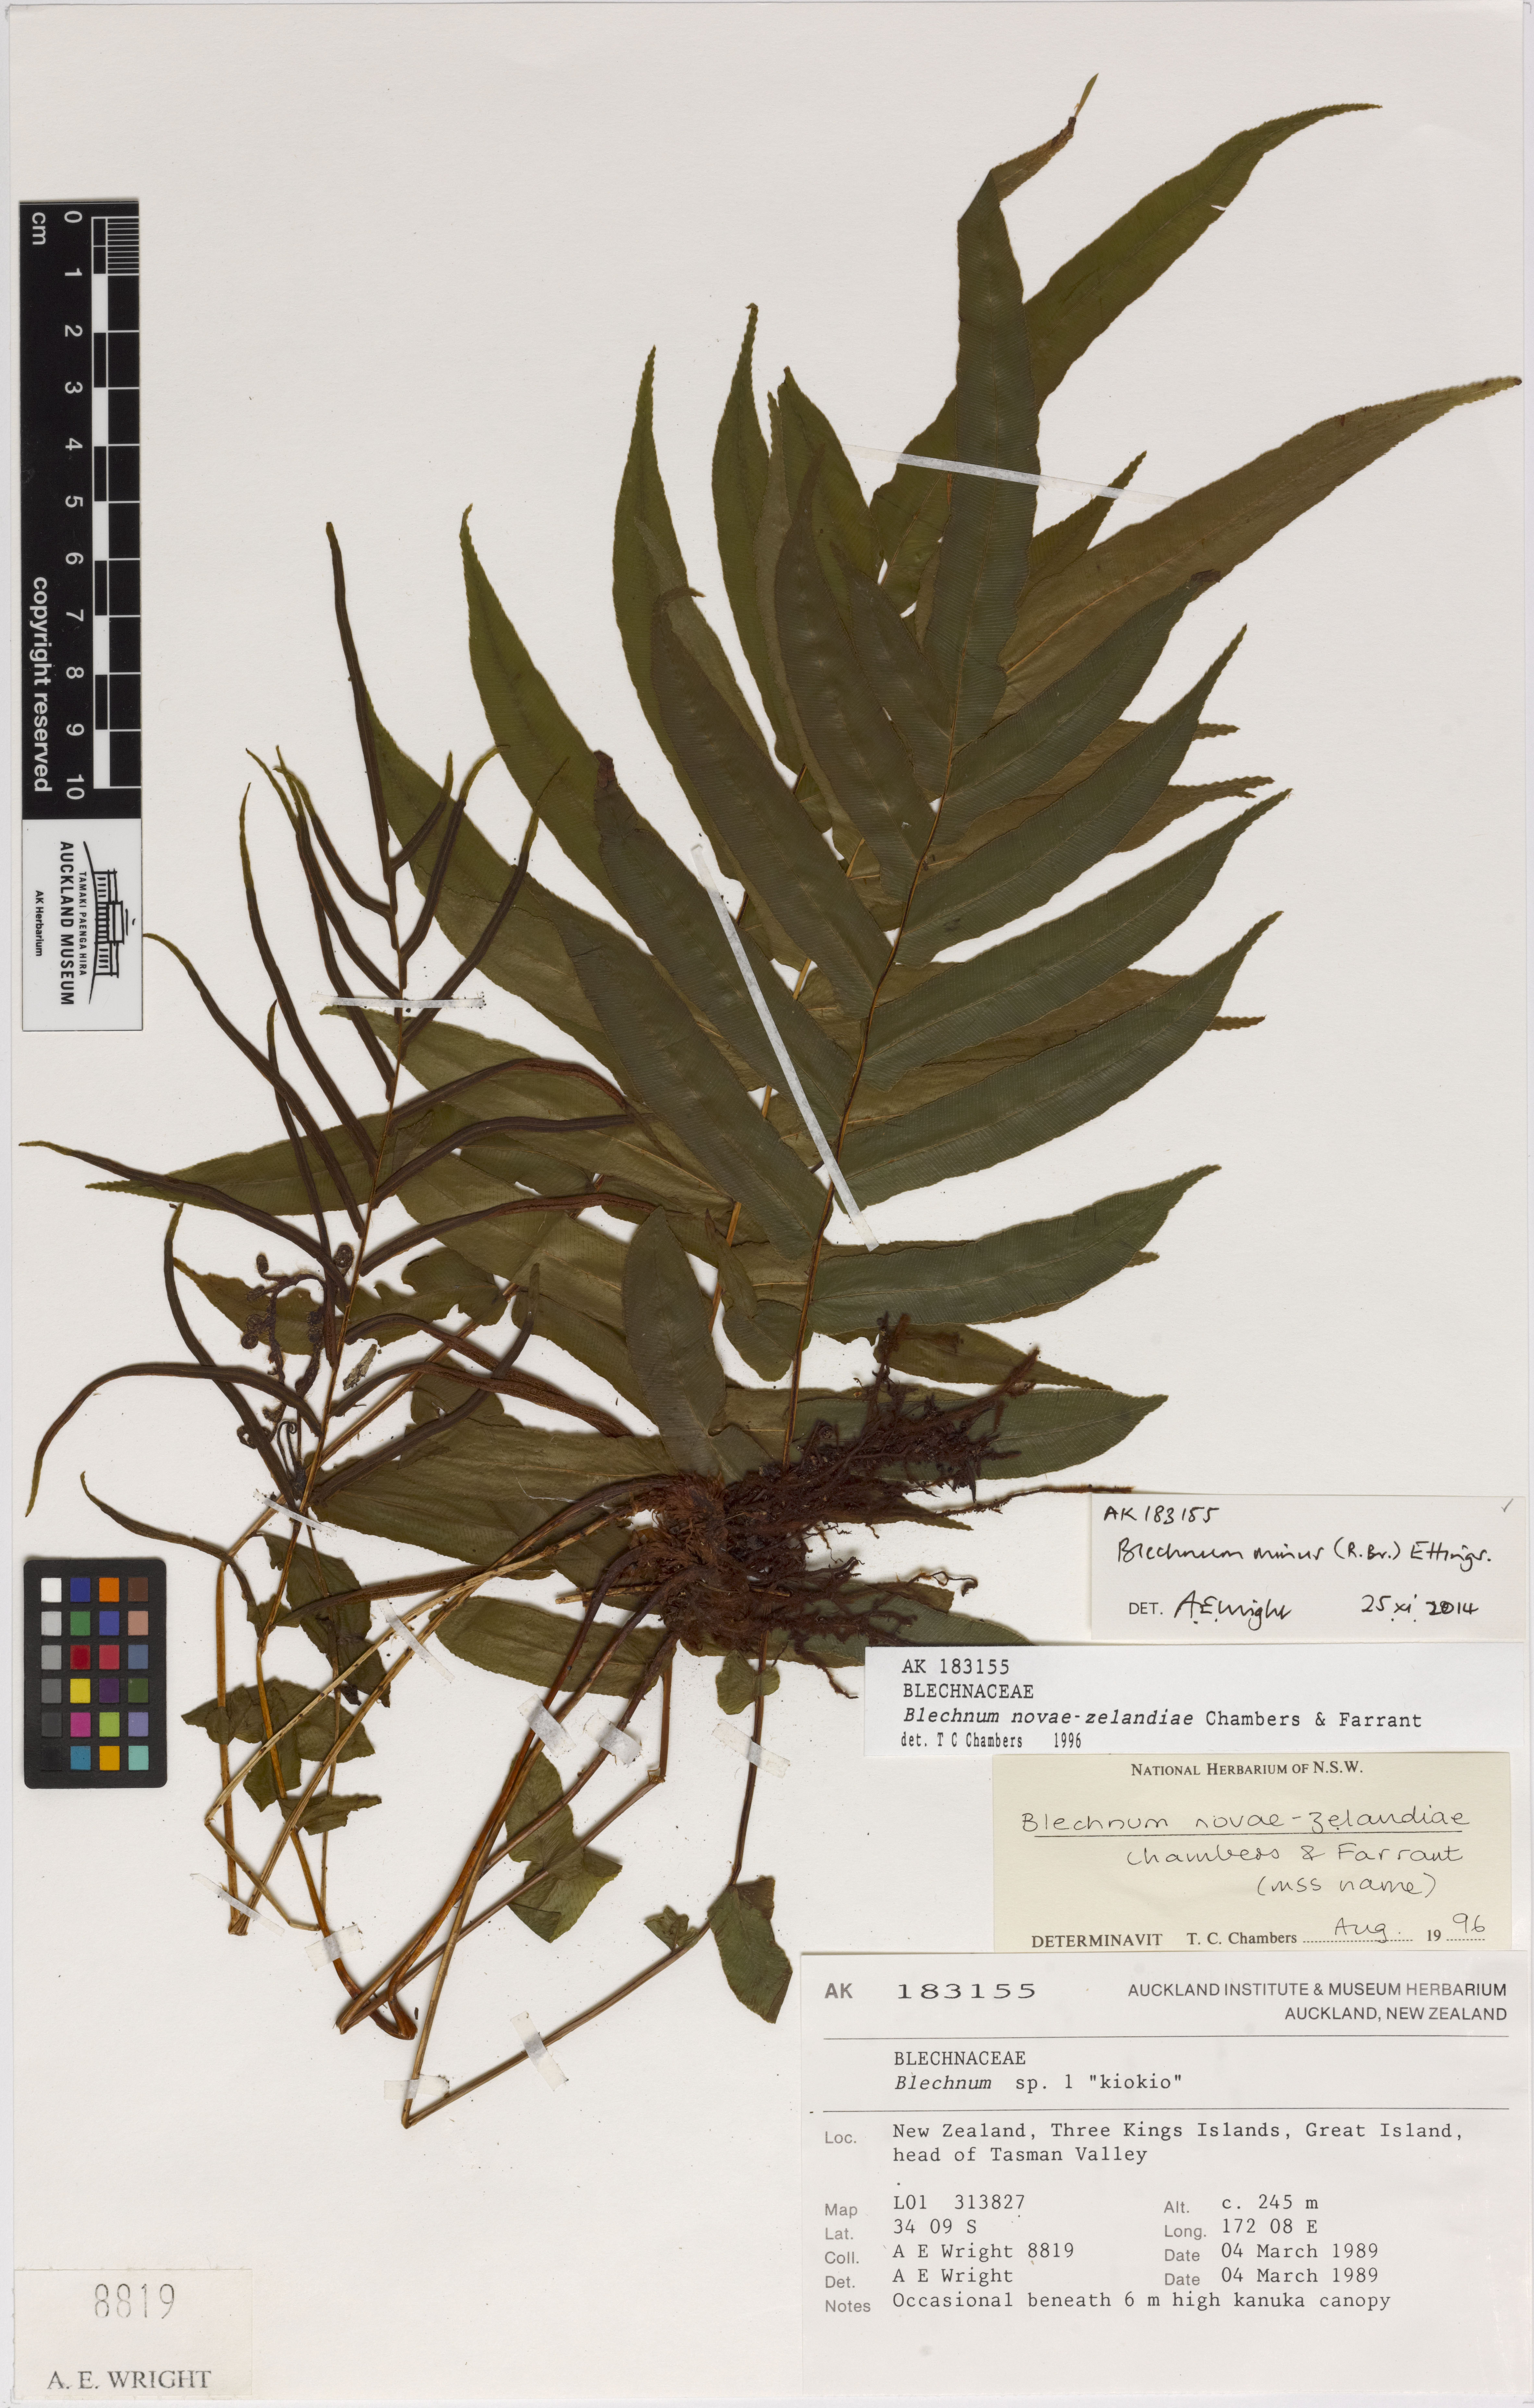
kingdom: Plantae
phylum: Tracheophyta
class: Polypodiopsida
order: Polypodiales
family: Blechnaceae
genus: Parablechnum
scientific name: Parablechnum novae-zelandiae
